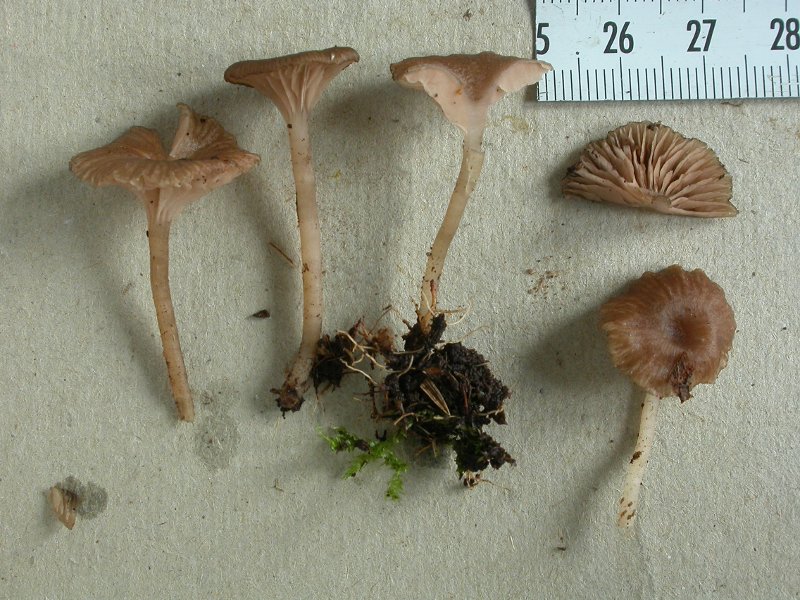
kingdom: Fungi
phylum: Basidiomycota
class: Agaricomycetes
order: Agaricales
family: Entolomataceae
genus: Entoloma
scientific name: Entoloma
